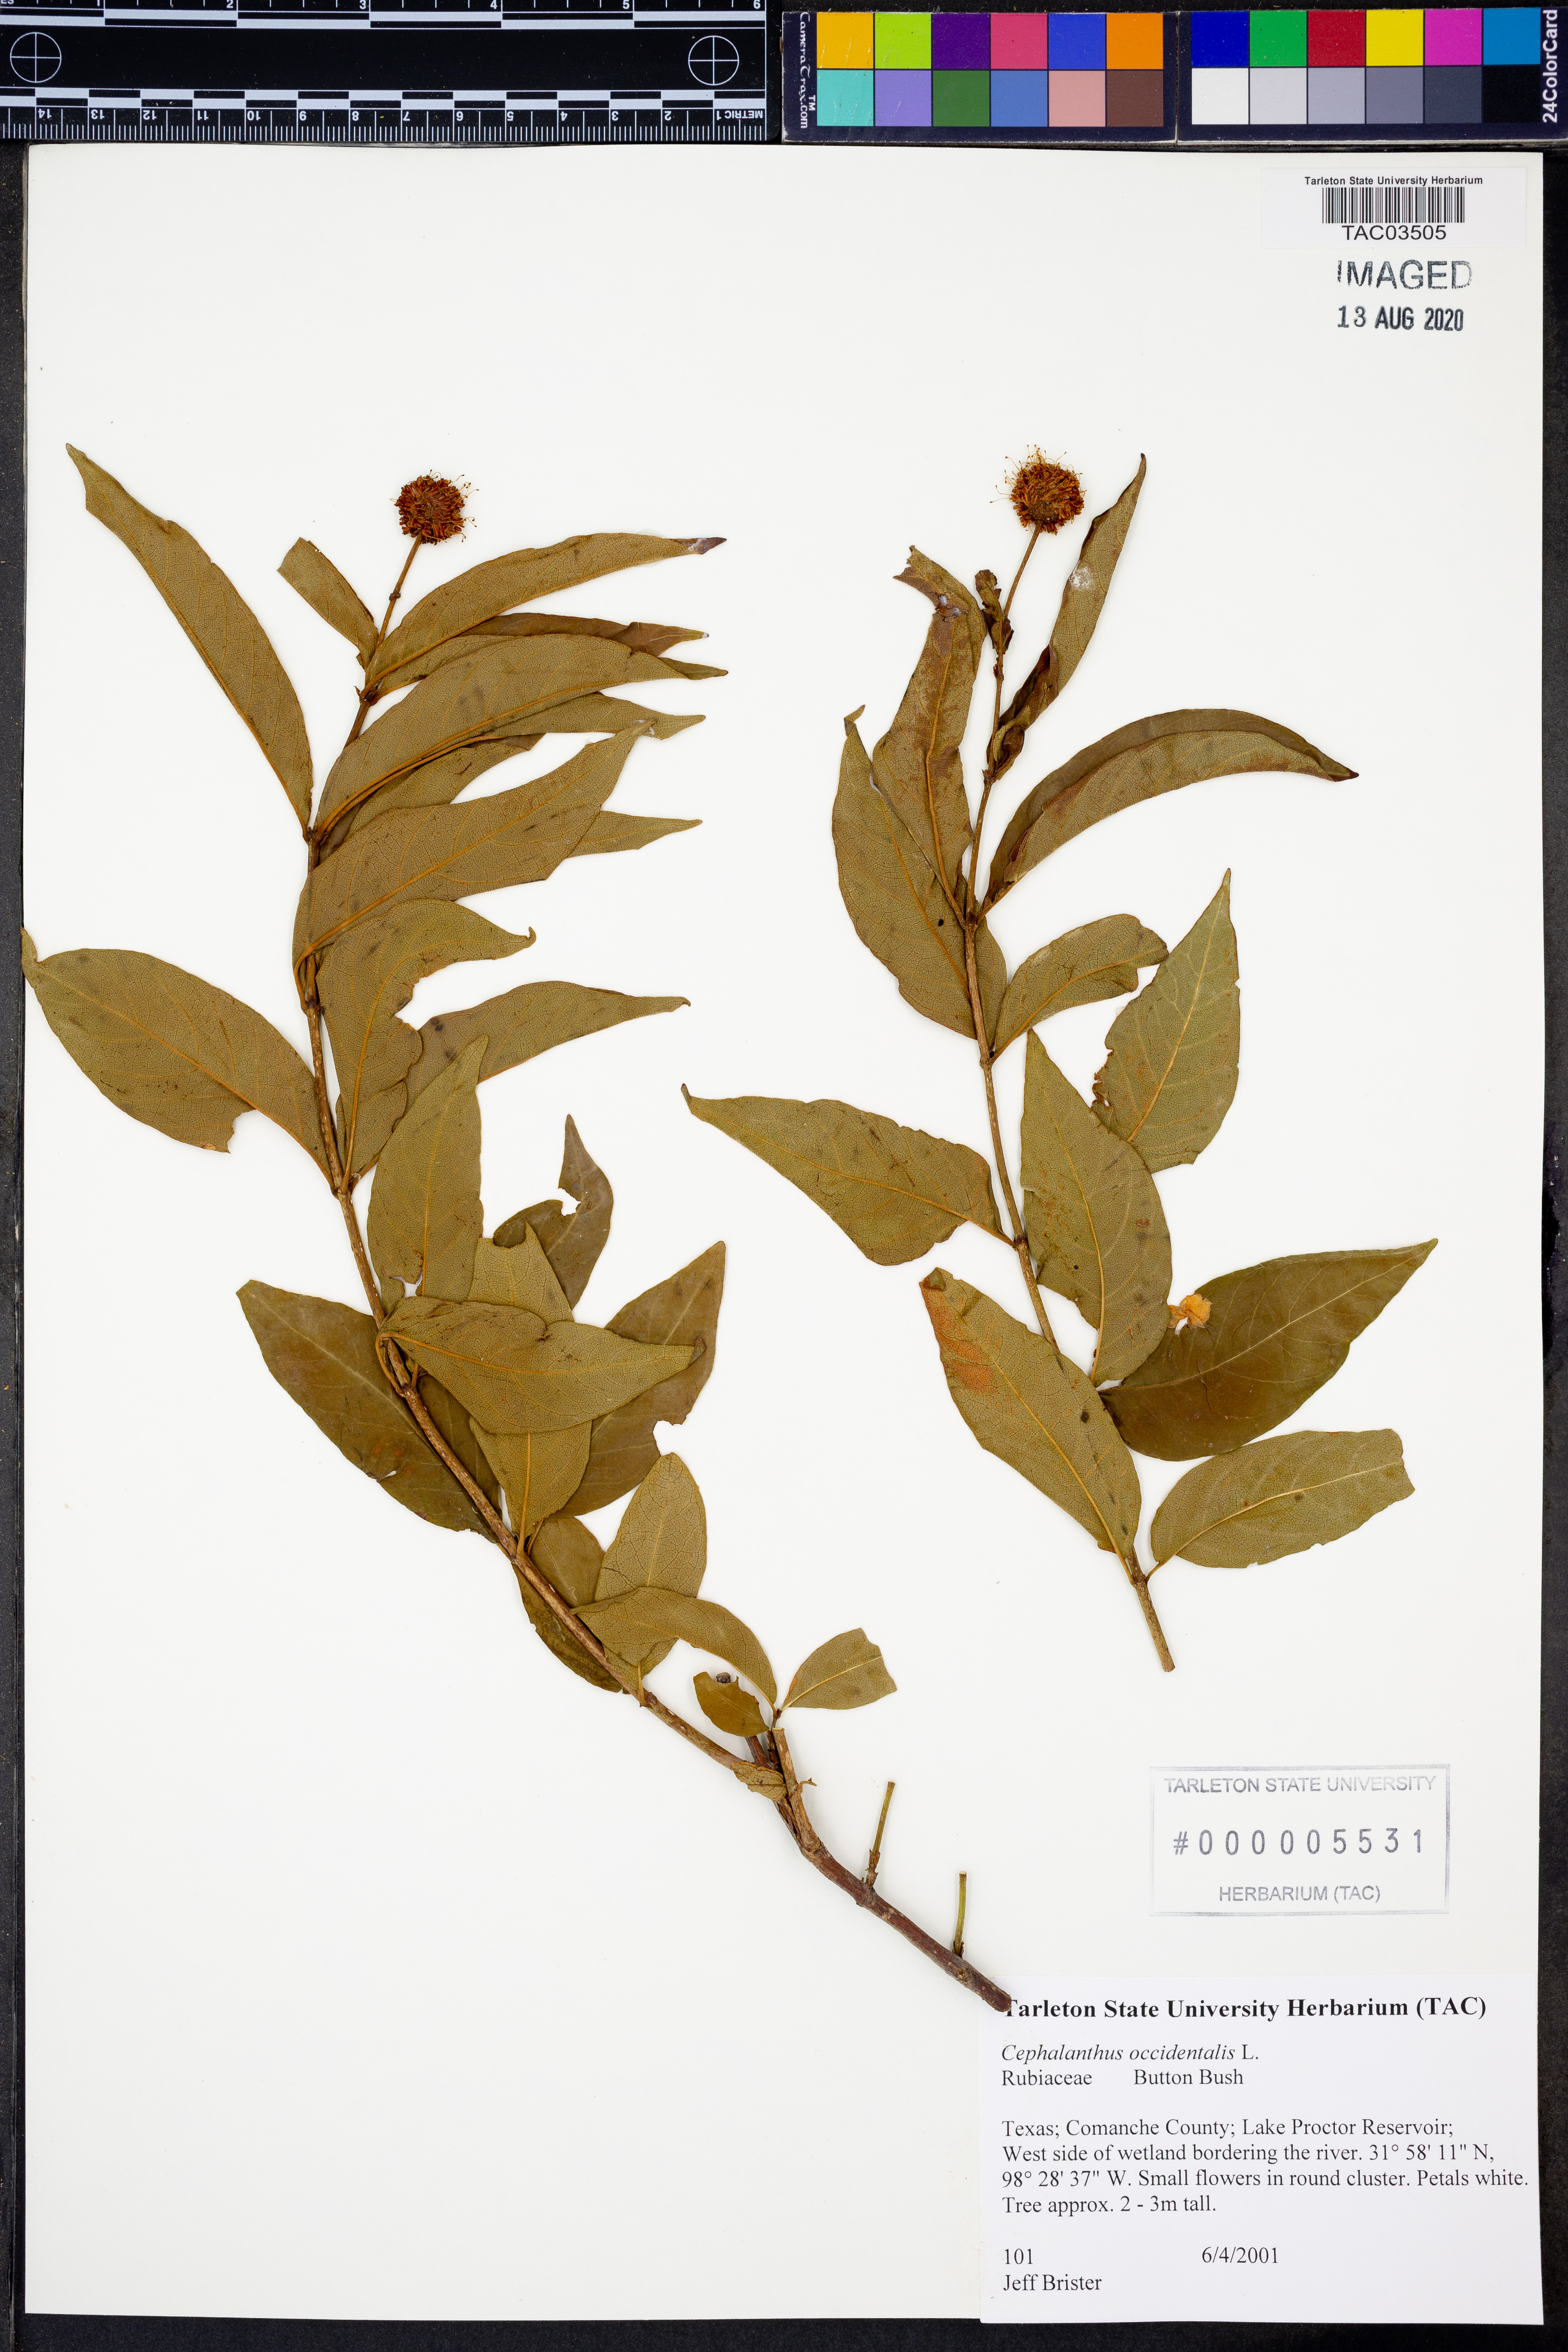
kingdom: Plantae
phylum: Tracheophyta
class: Magnoliopsida
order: Gentianales
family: Rubiaceae
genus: Cephalanthus
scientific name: Cephalanthus occidentalis
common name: Button-willow
